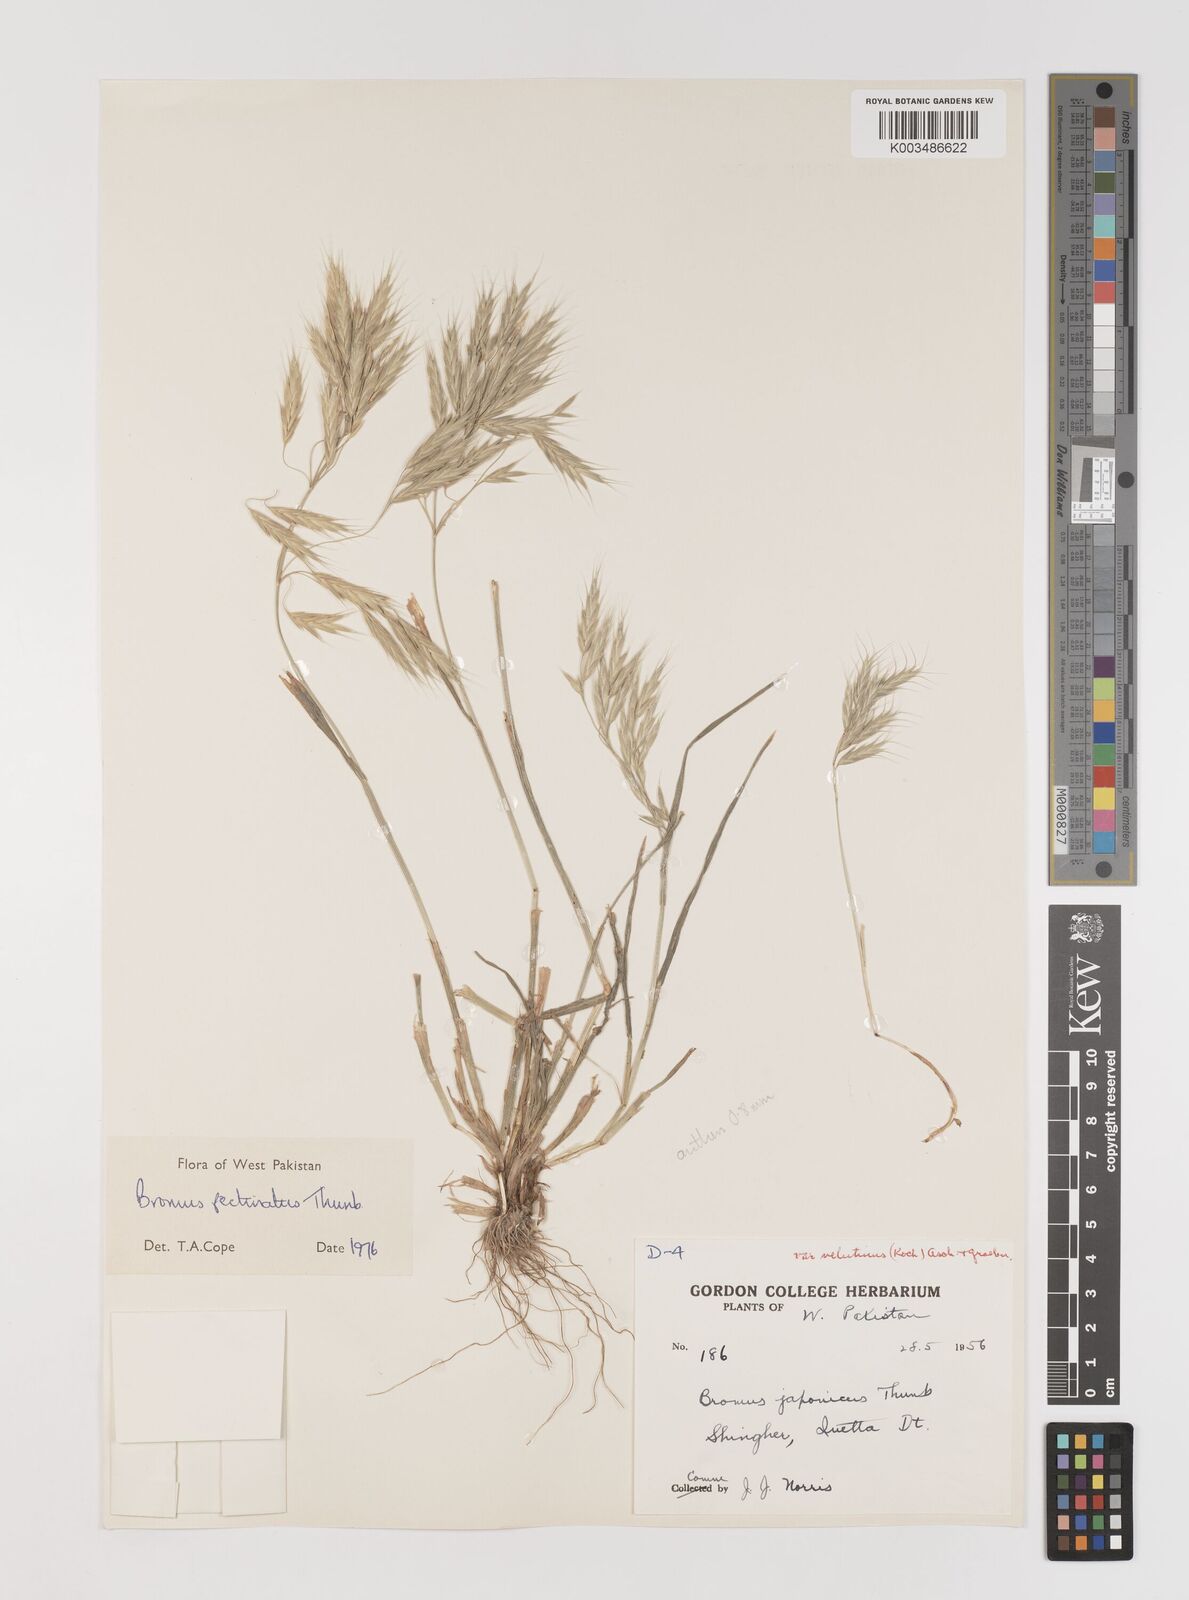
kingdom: Plantae
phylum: Tracheophyta
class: Liliopsida
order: Poales
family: Poaceae
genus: Bromus
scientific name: Bromus pectinatus
